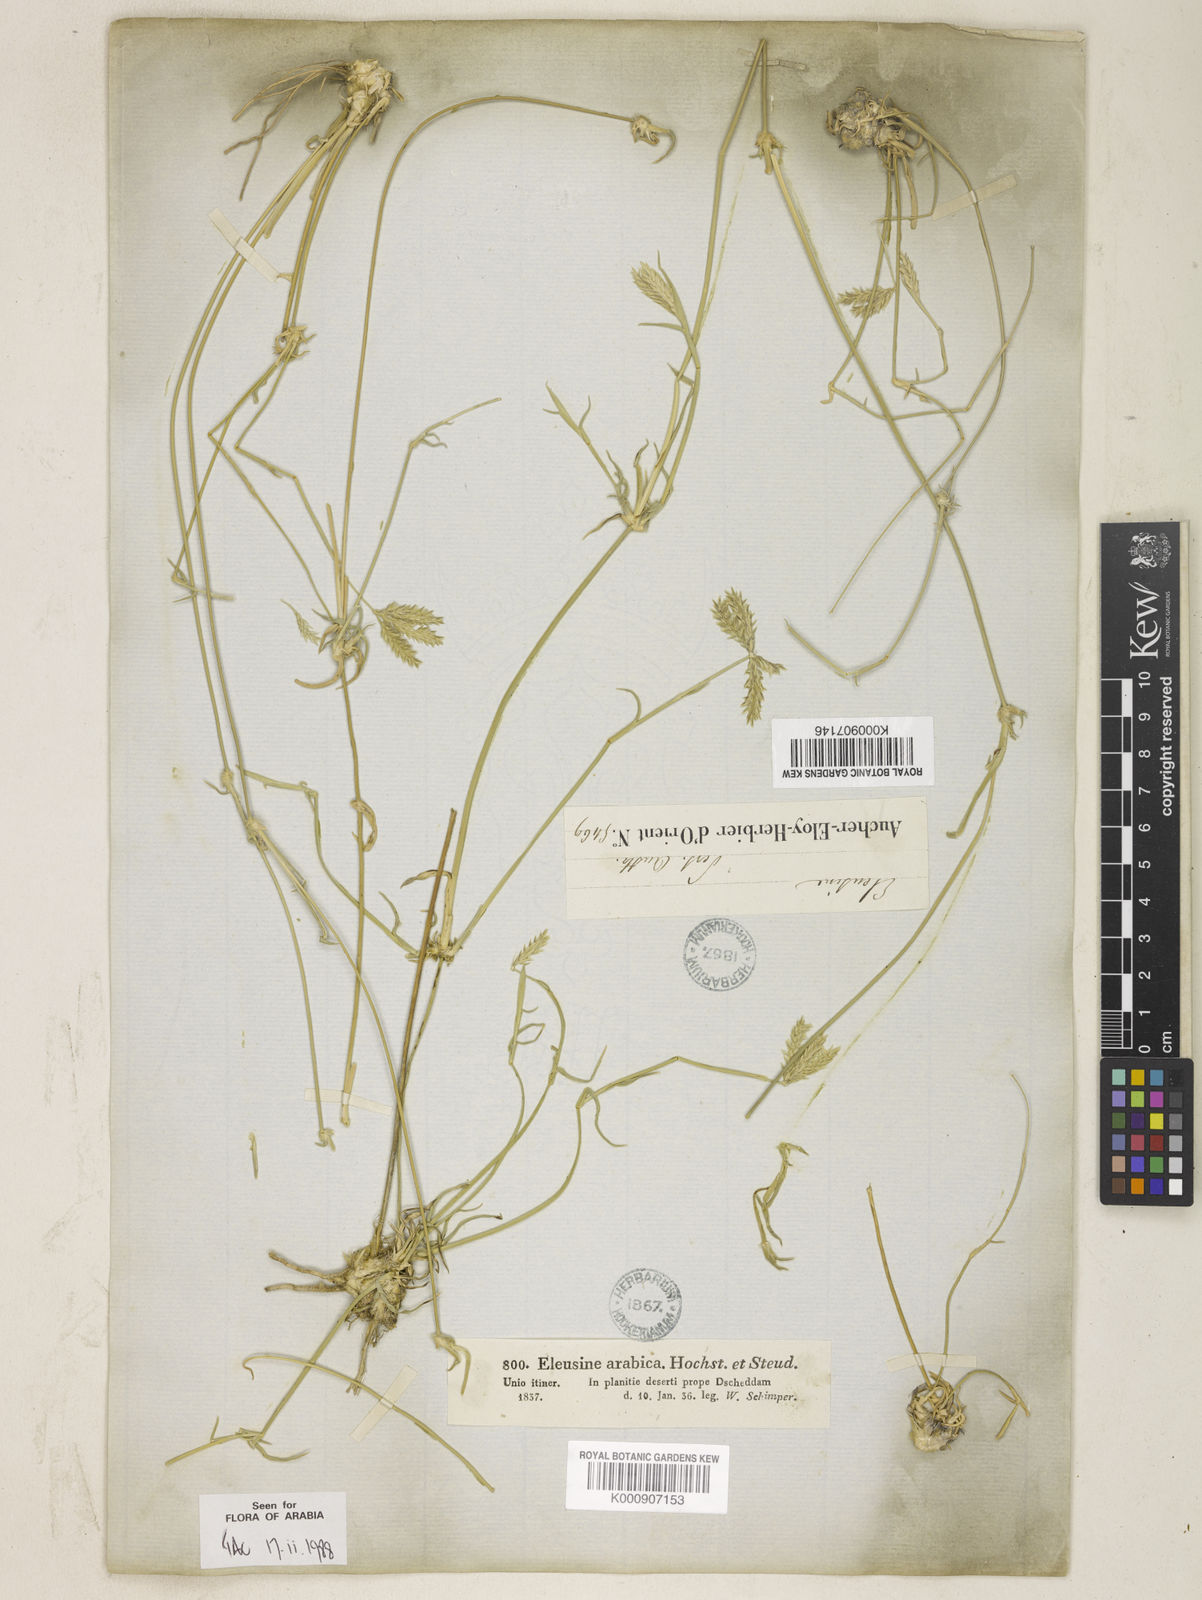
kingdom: Plantae
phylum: Tracheophyta
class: Liliopsida
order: Poales
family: Poaceae
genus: Chloris
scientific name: Chloris flagellifera
